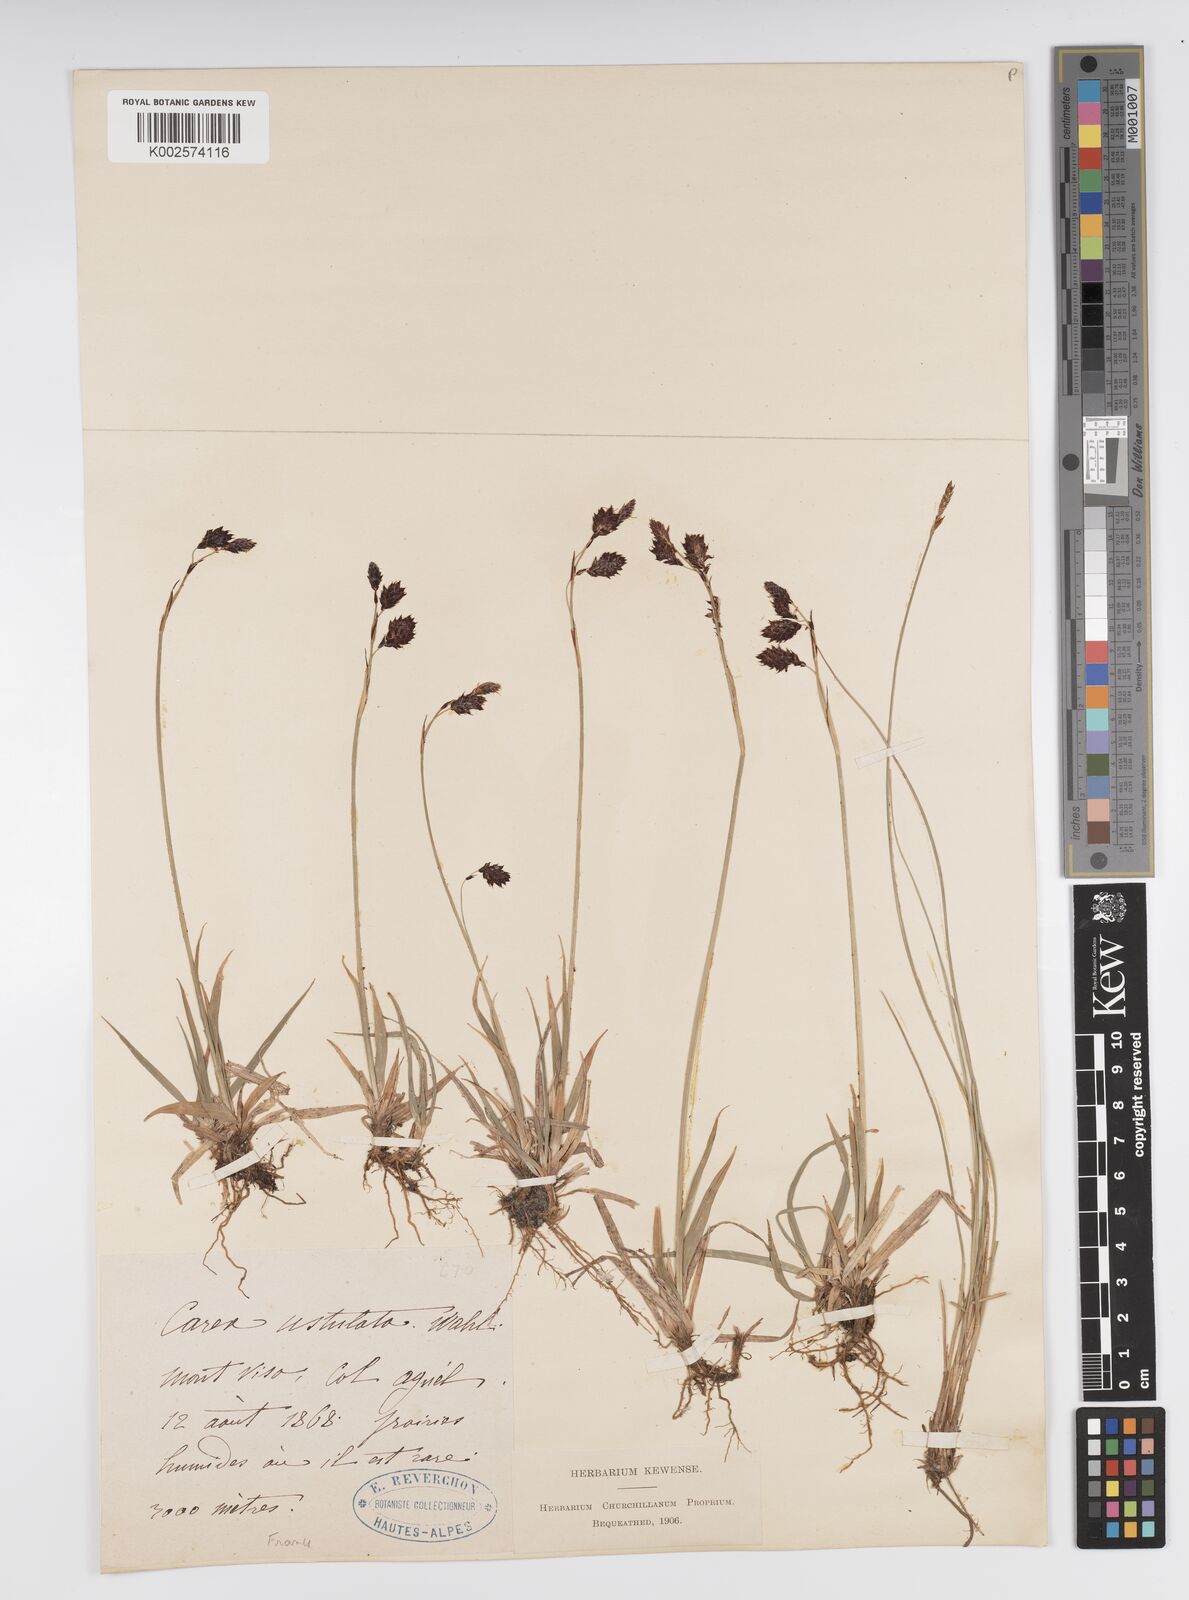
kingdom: Plantae
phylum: Tracheophyta
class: Liliopsida
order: Poales
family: Cyperaceae
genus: Carex
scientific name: Carex atrofusca
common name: Scorched alpine-sedge
